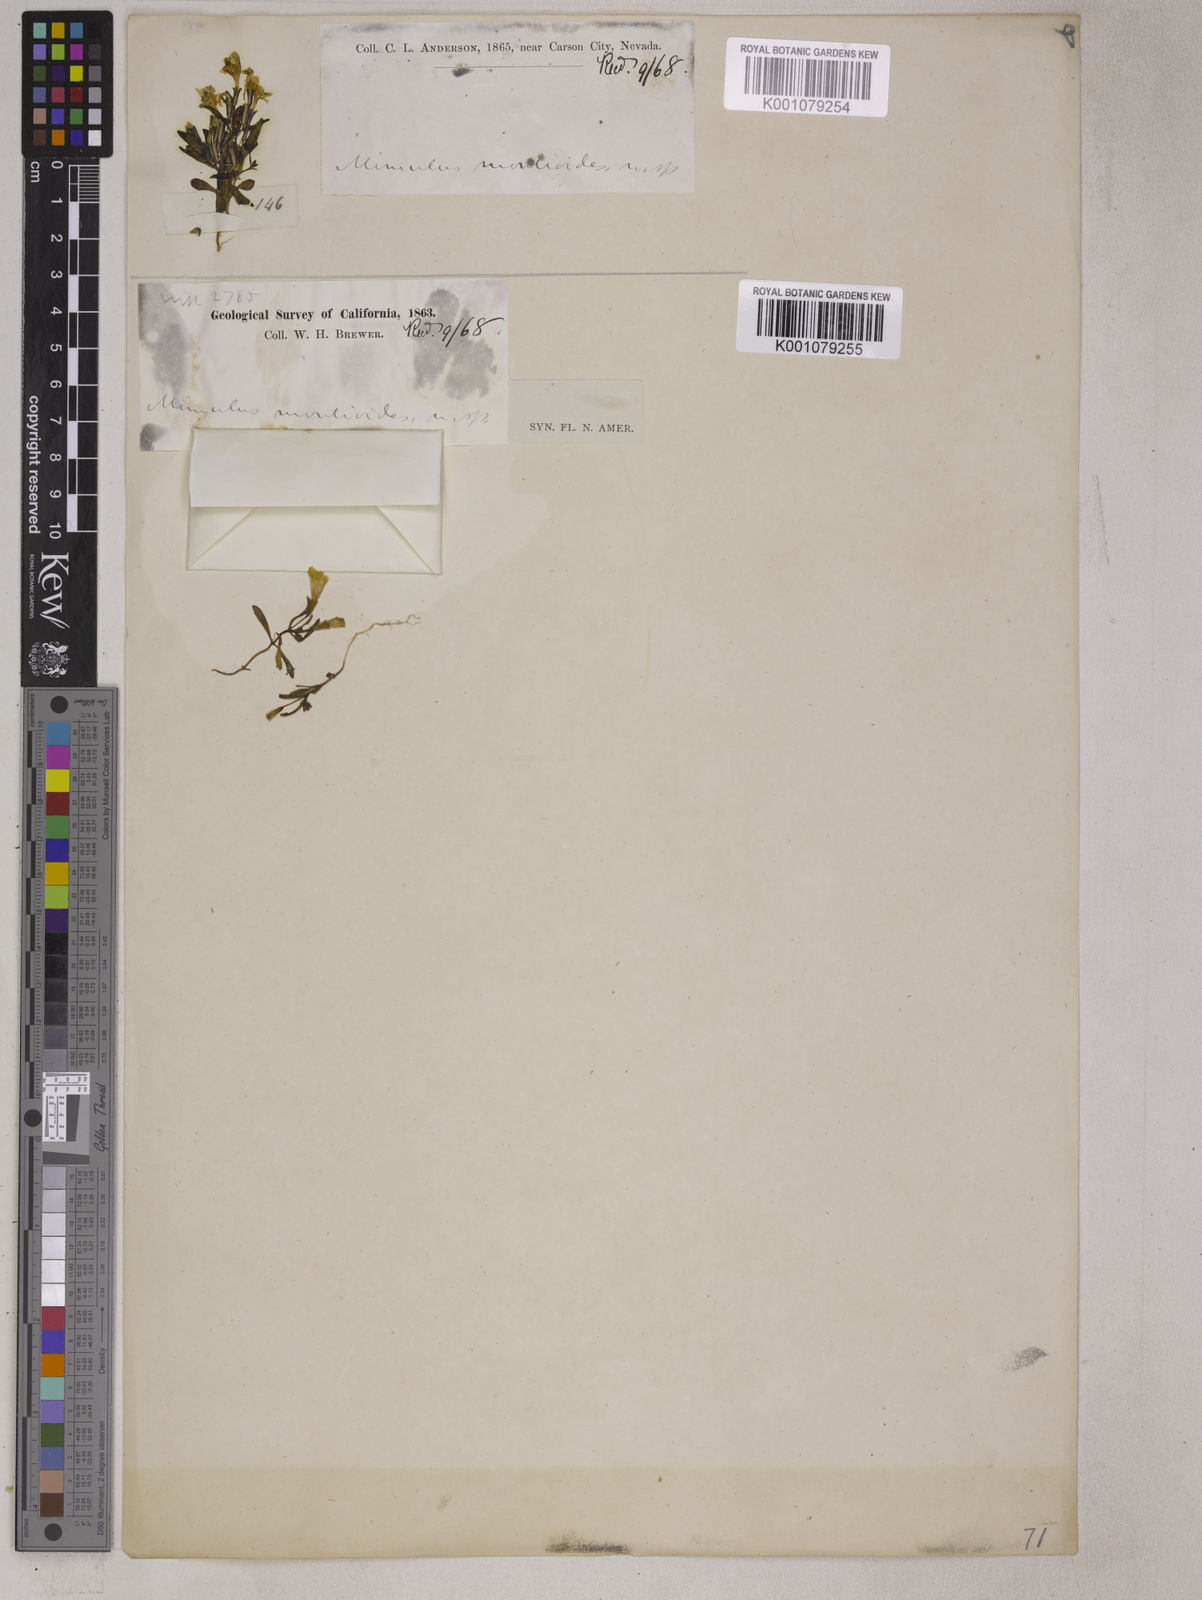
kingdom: Plantae
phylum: Tracheophyta
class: Magnoliopsida
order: Lamiales
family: Phrymaceae
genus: Erythranthe
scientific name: Erythranthe montioides
